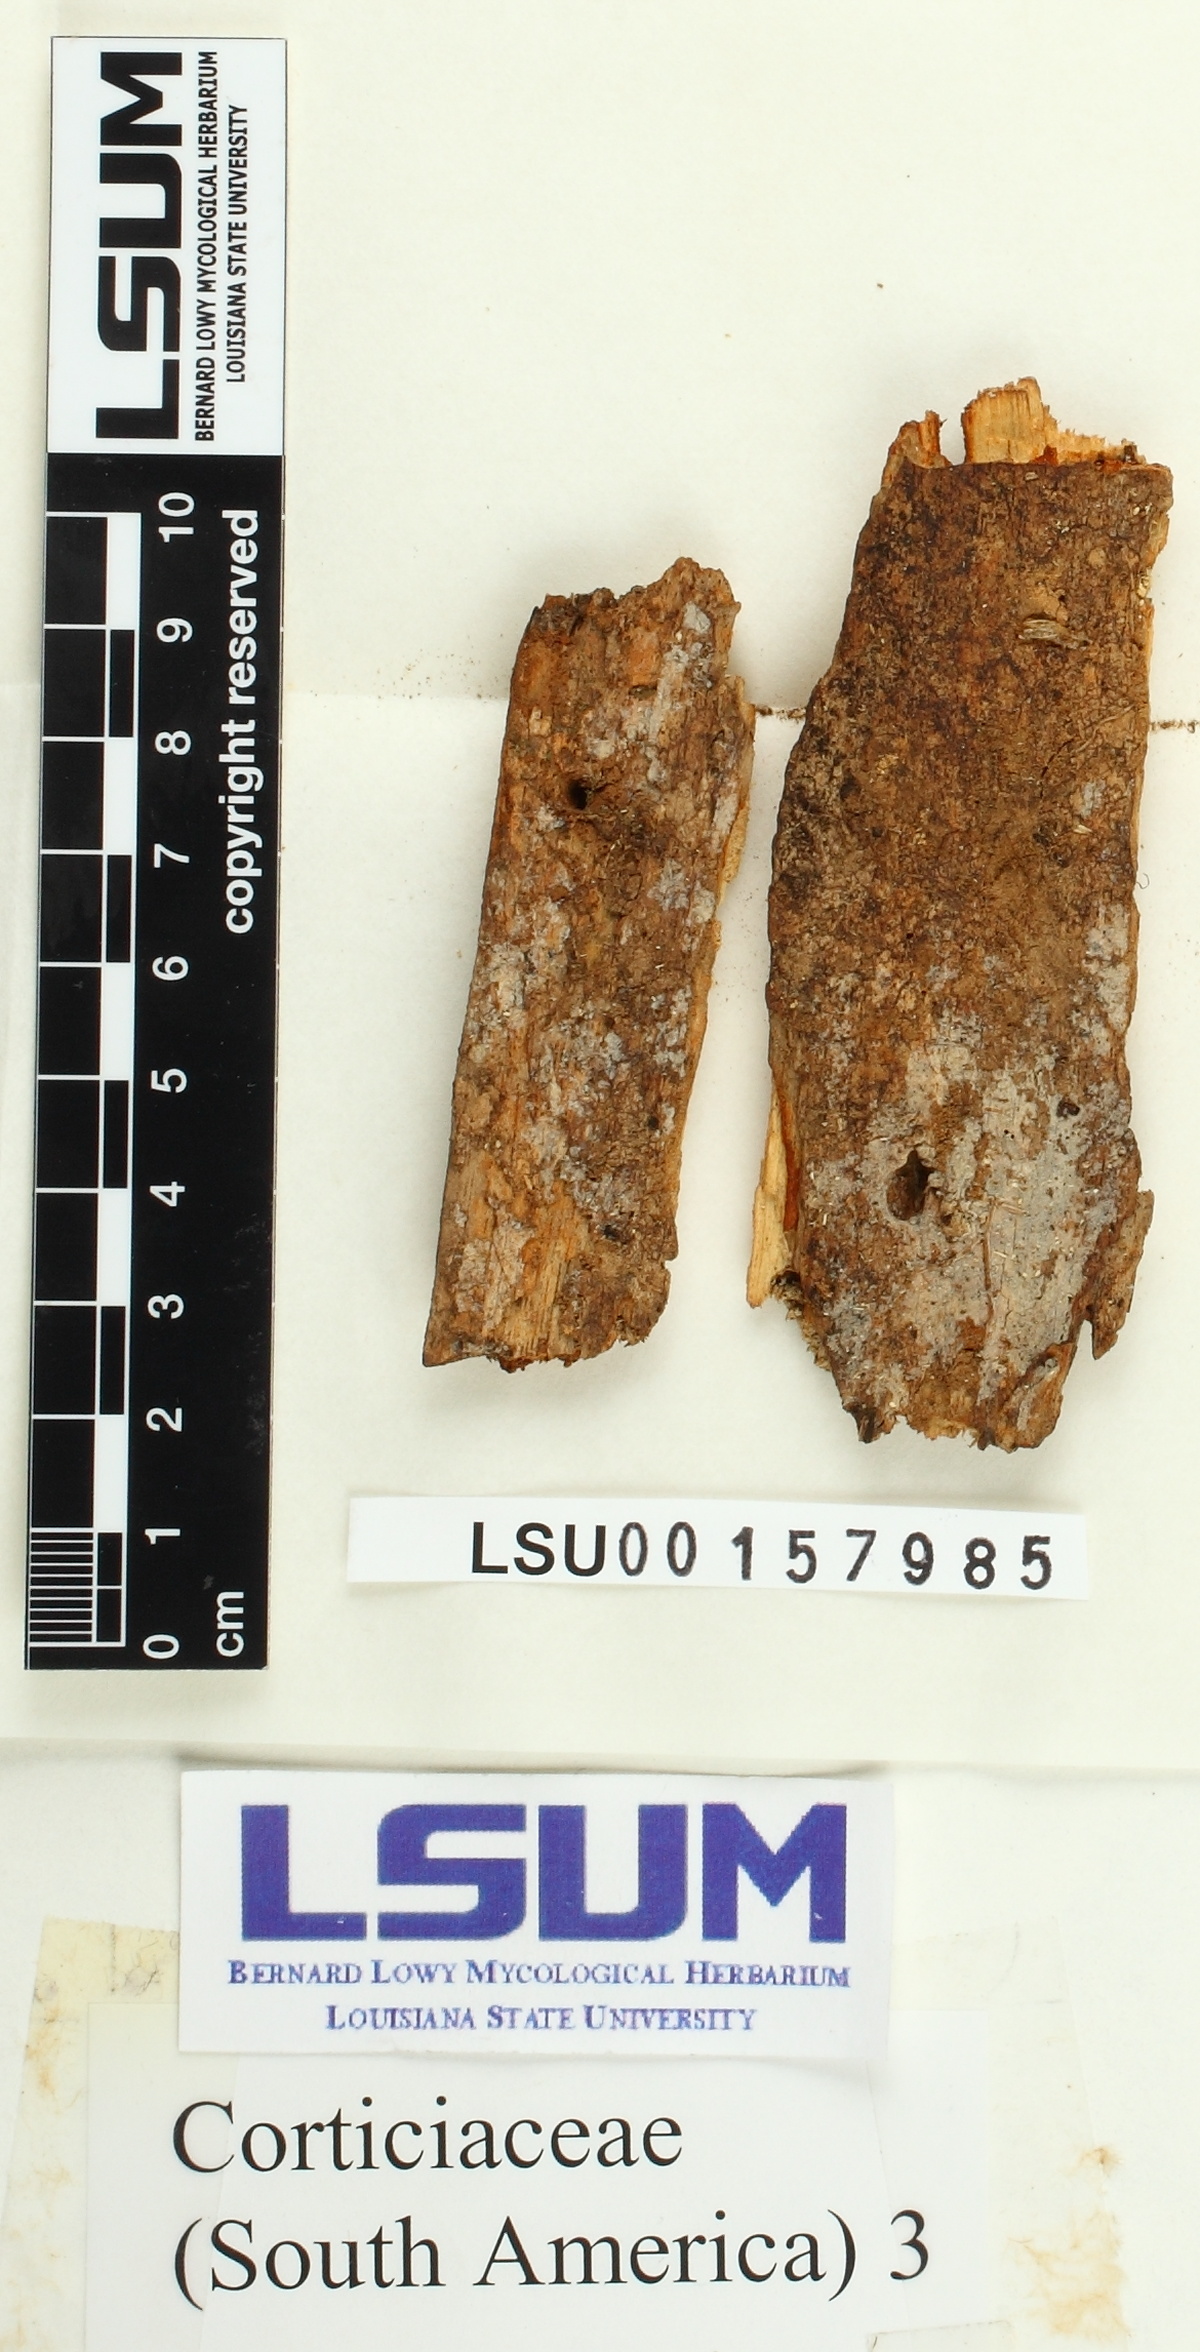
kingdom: Fungi
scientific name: Fungi
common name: Fungi
